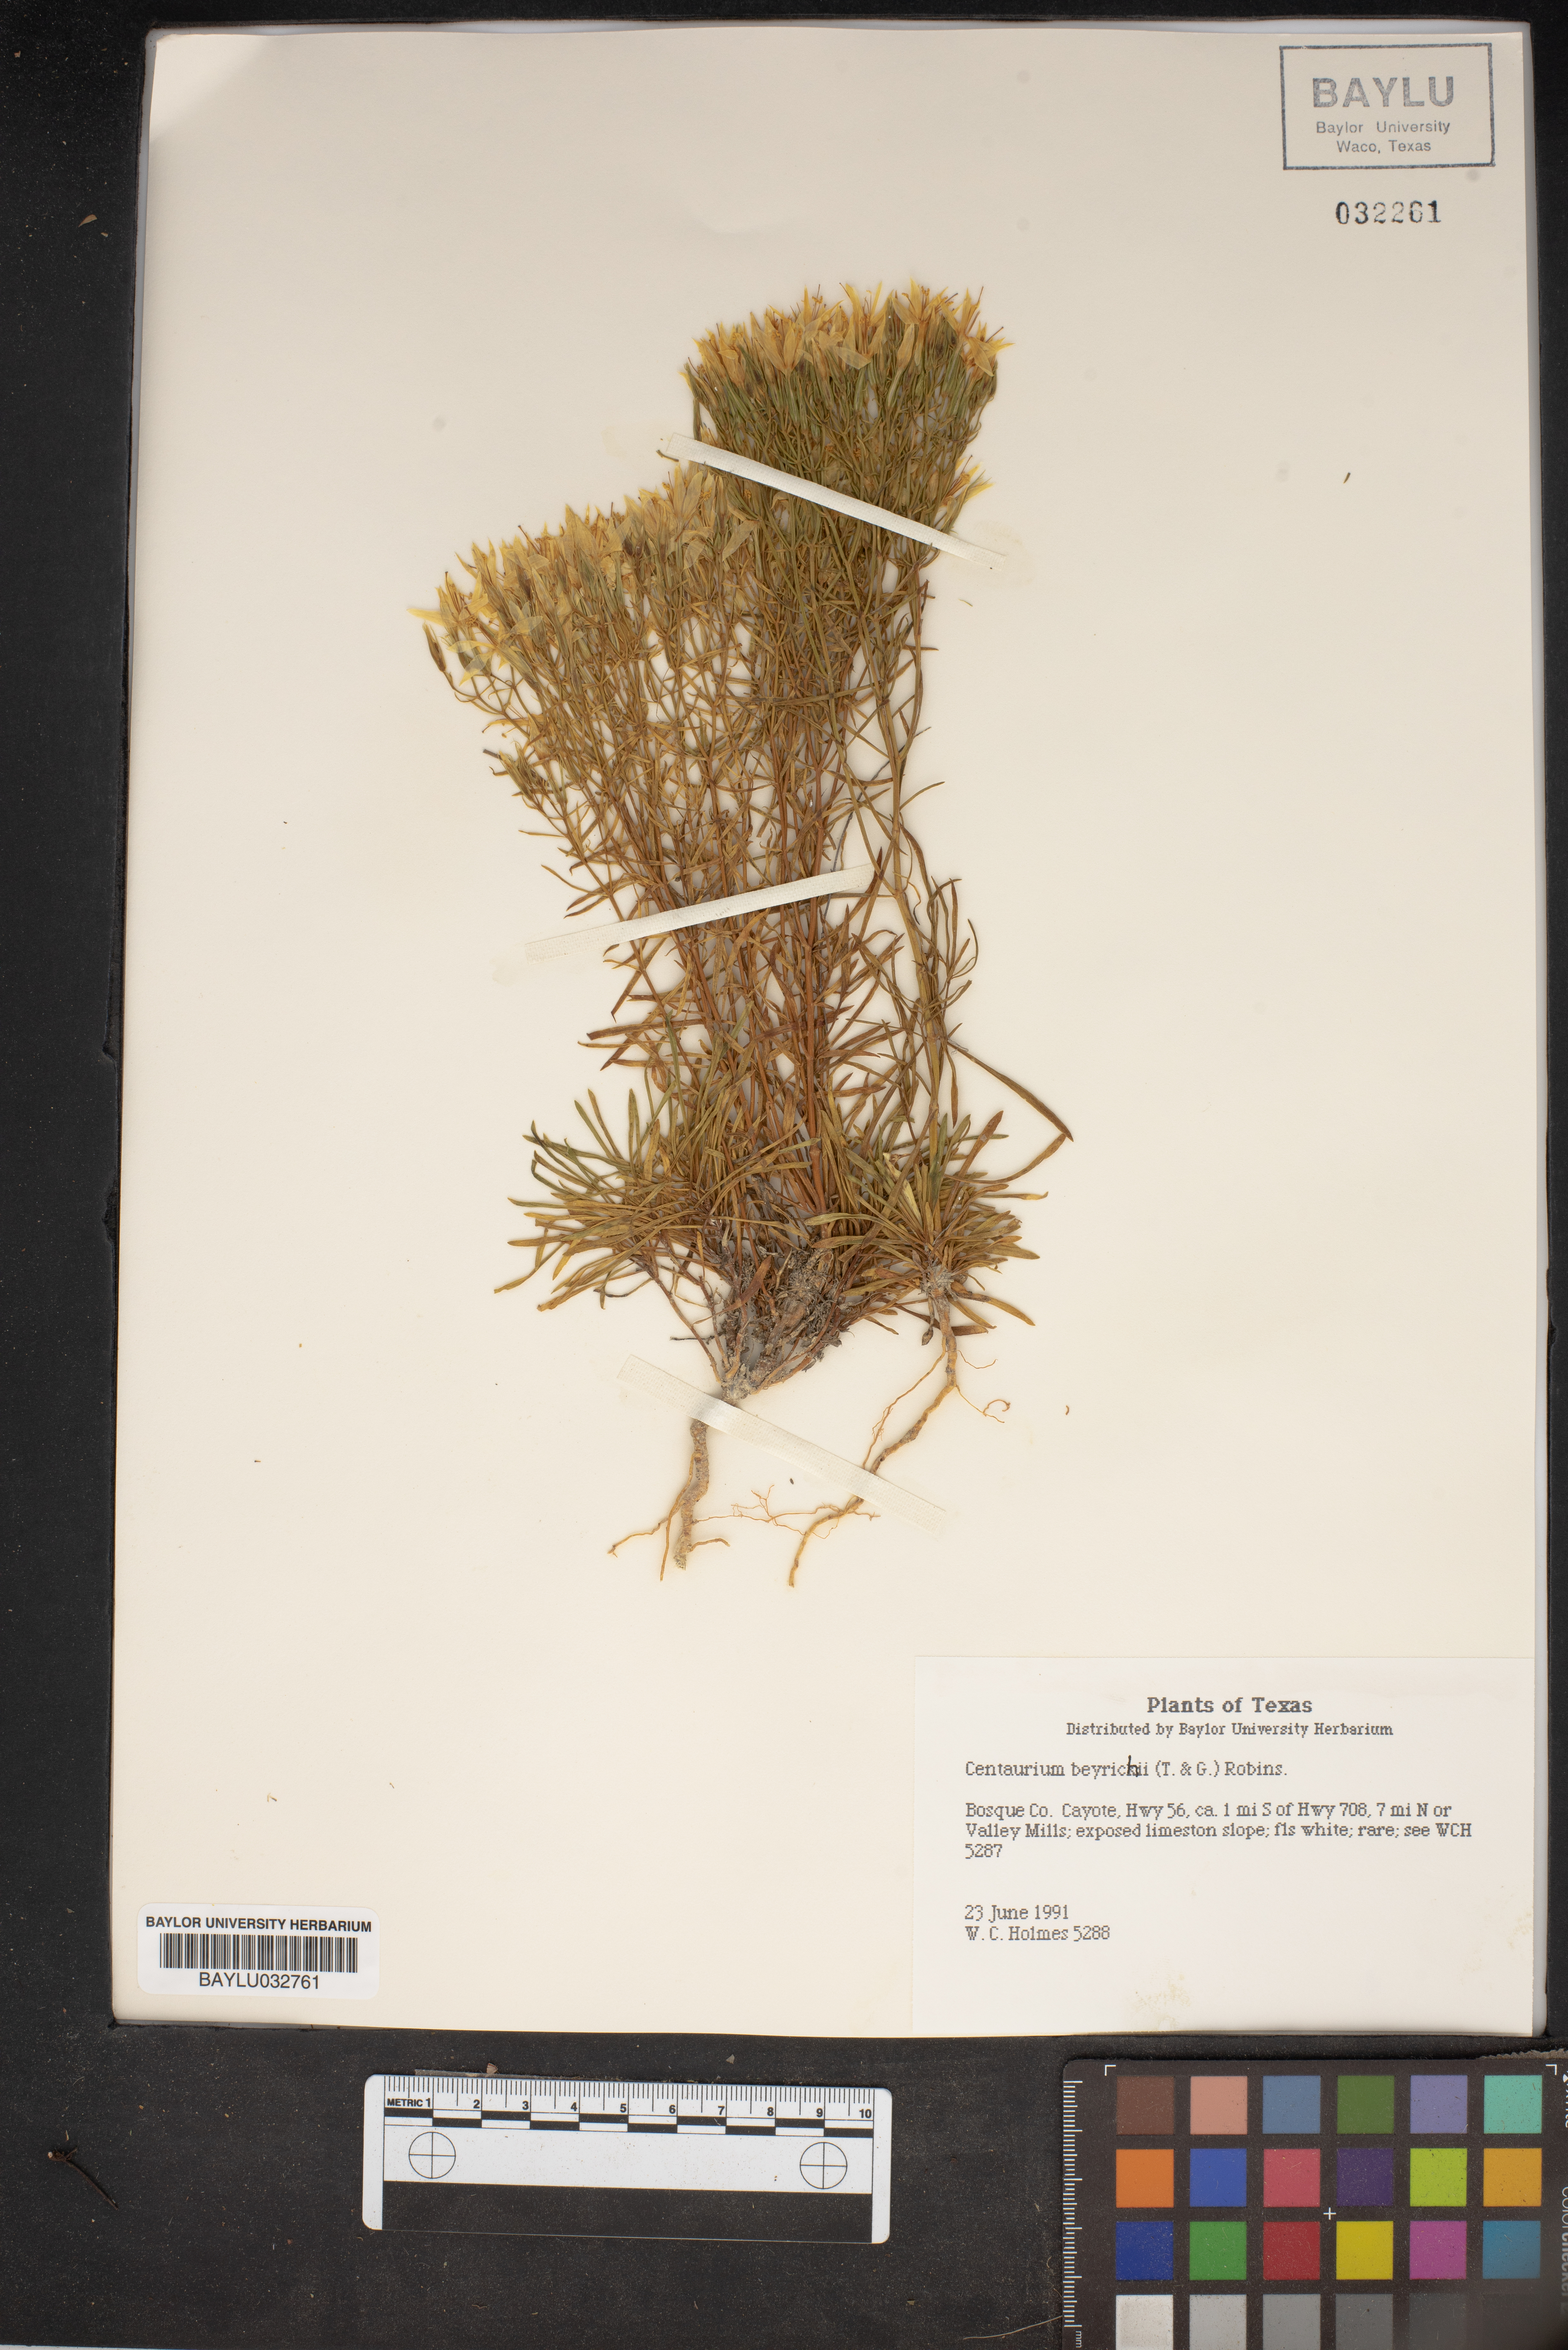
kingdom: Plantae
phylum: Tracheophyta
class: Magnoliopsida
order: Gentianales
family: Gentianaceae
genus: Zeltnera
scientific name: Zeltnera beyrichii
